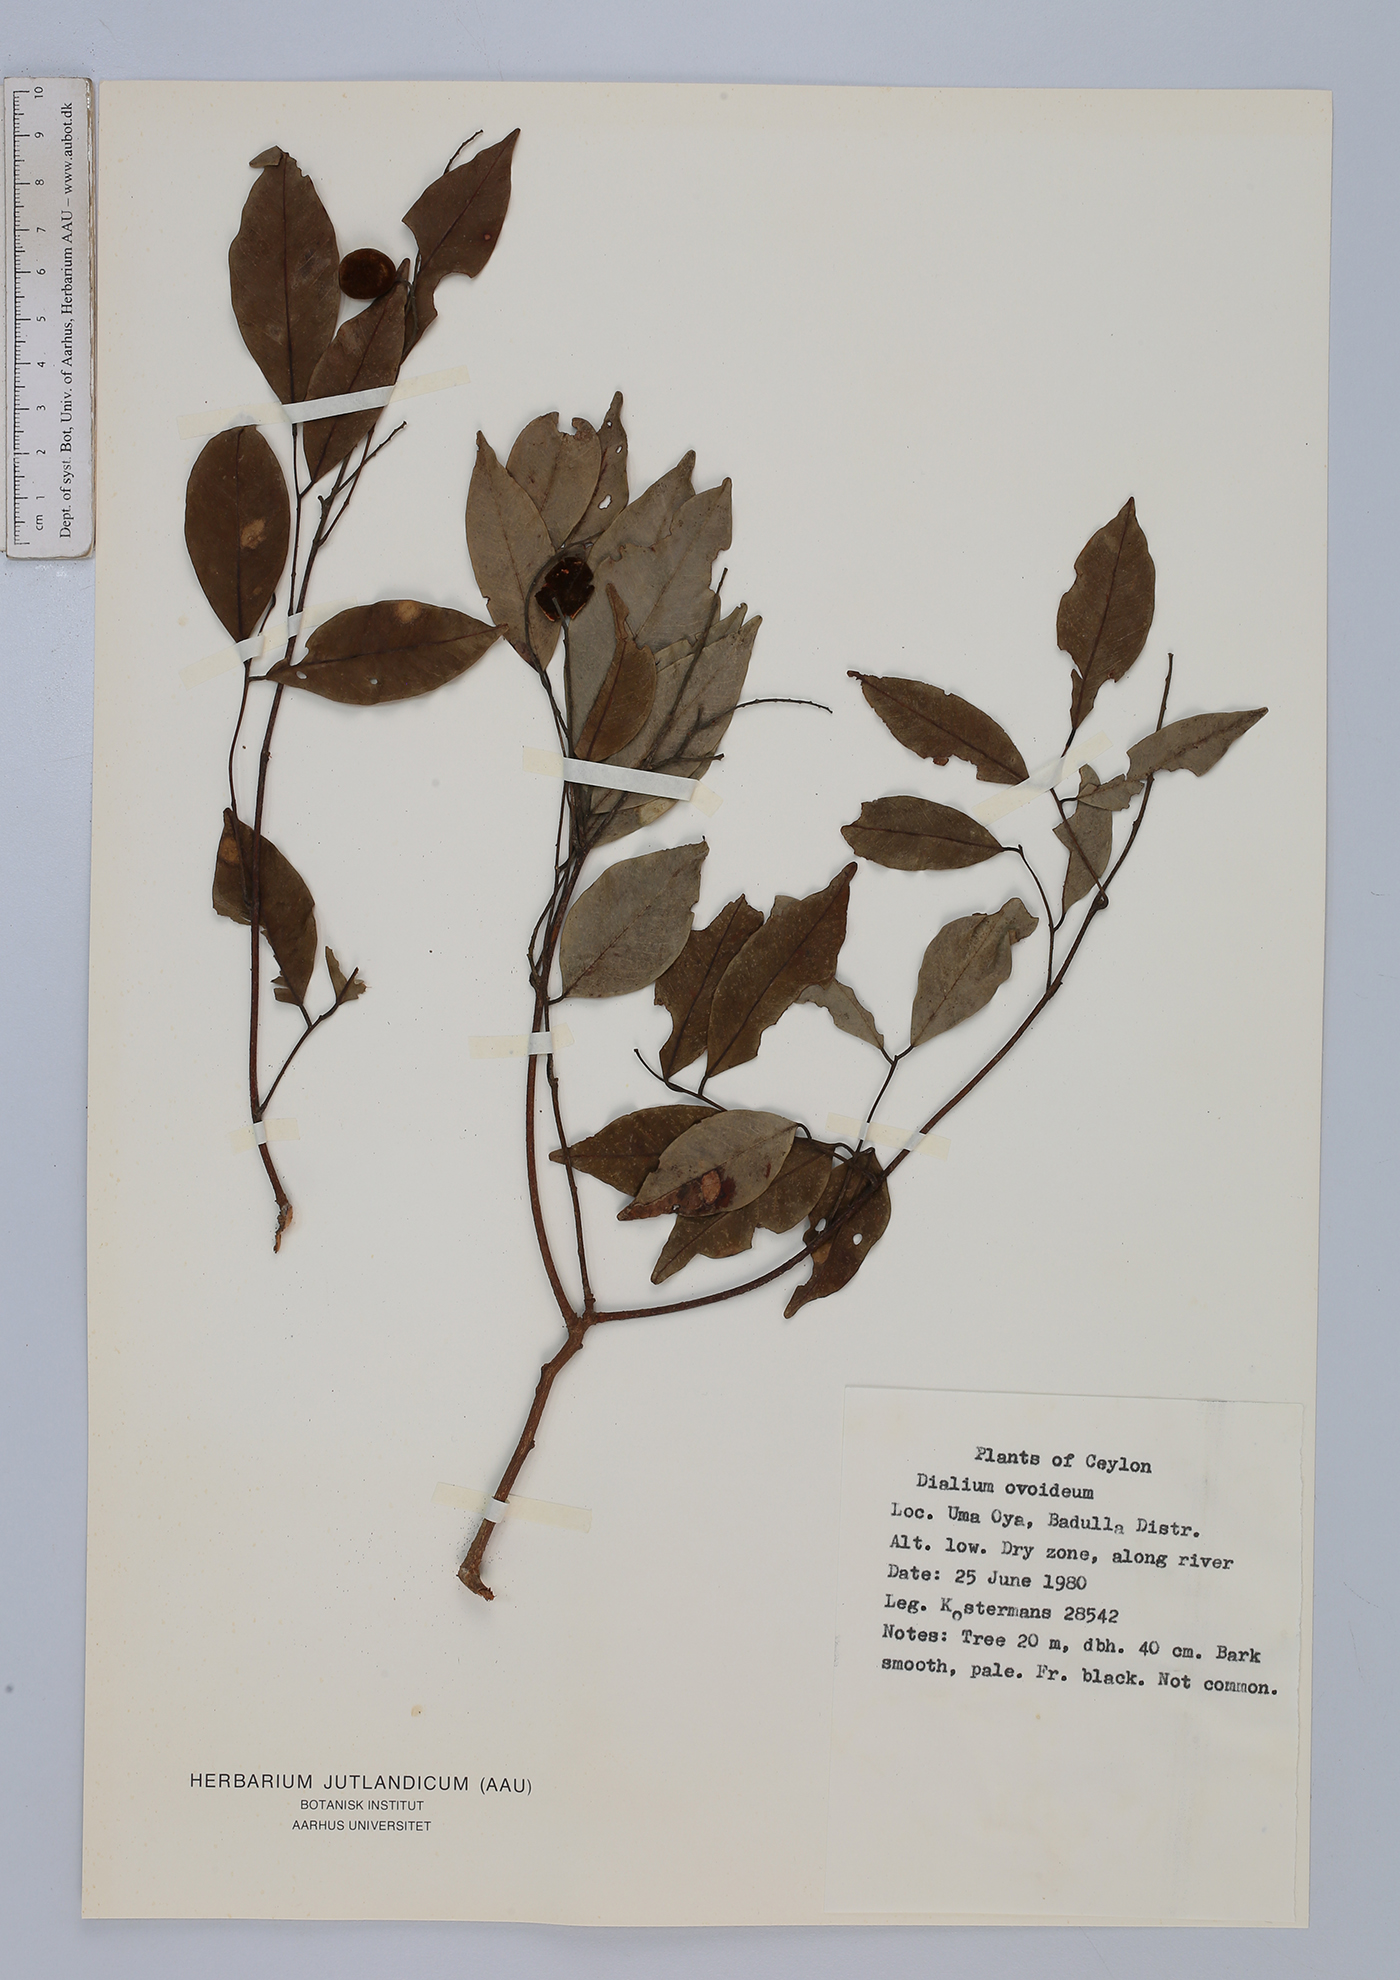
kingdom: Plantae
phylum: Tracheophyta
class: Magnoliopsida
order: Fabales
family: Fabaceae
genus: Dialium
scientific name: Dialium ovoideum
